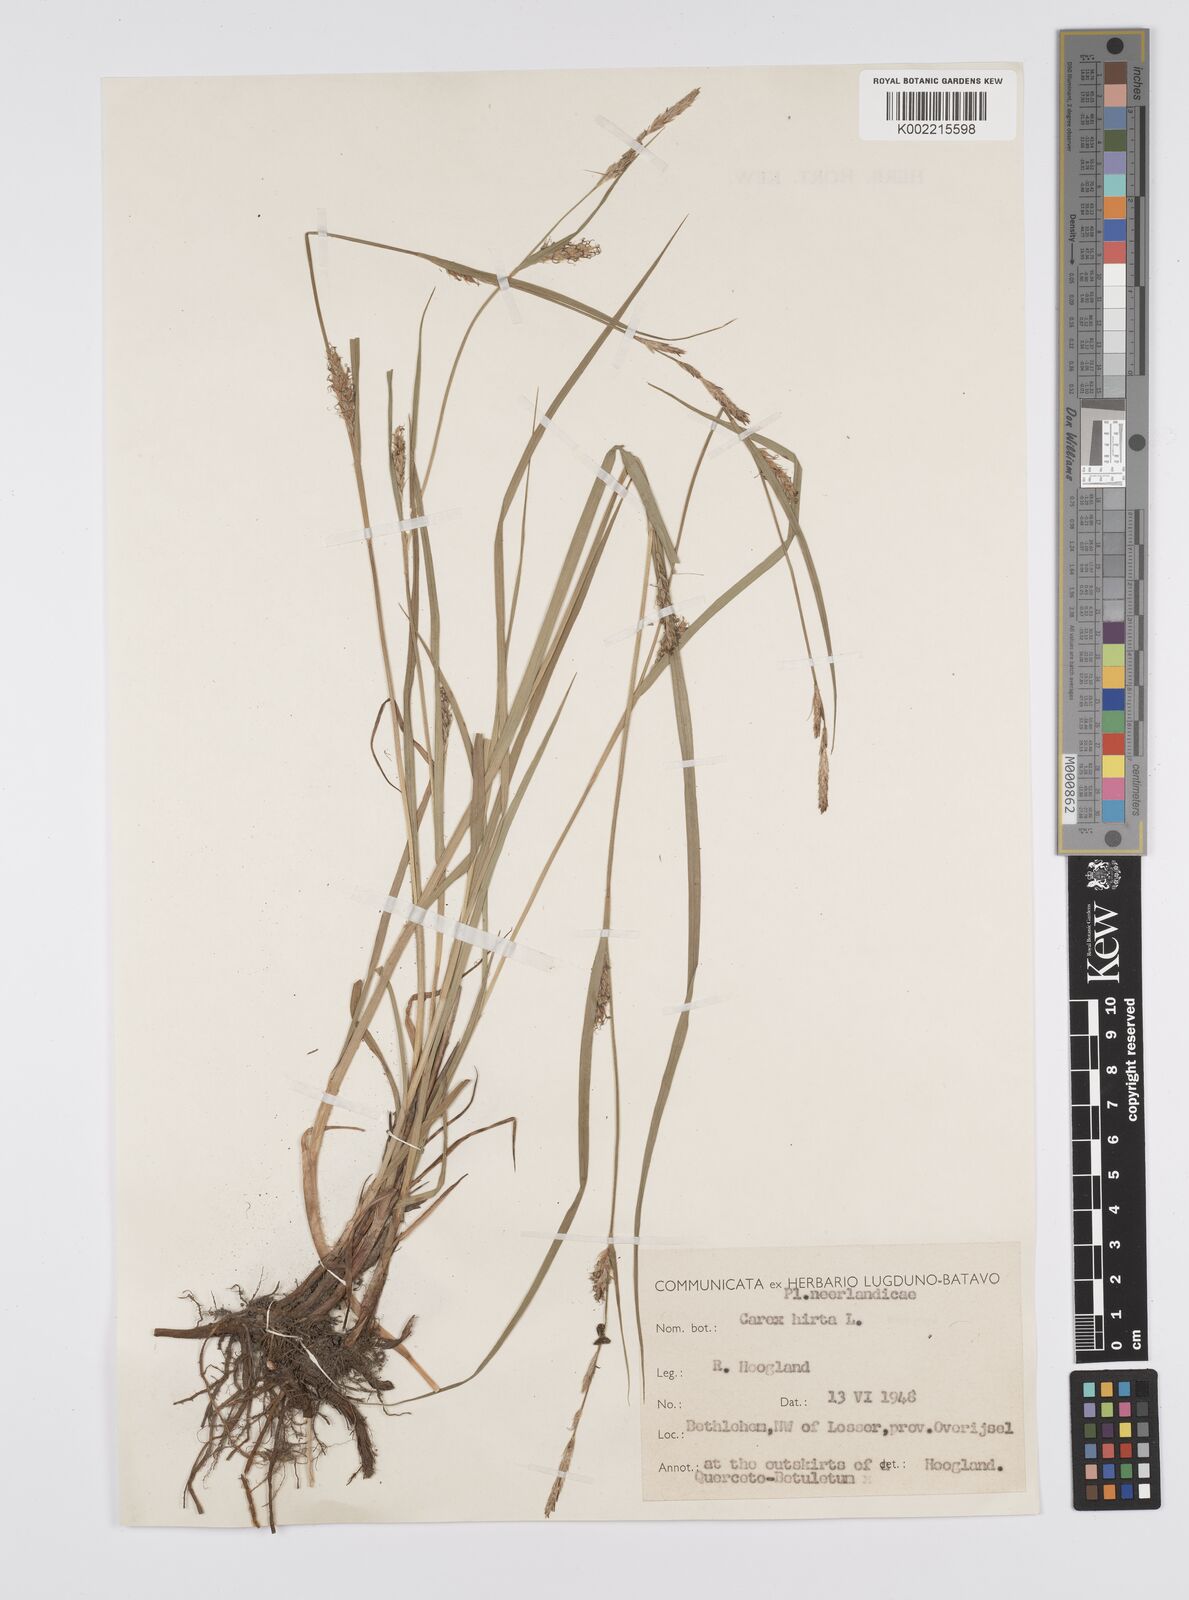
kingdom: Plantae
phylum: Tracheophyta
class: Liliopsida
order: Poales
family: Cyperaceae
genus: Carex
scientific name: Carex hirta
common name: Hairy sedge
